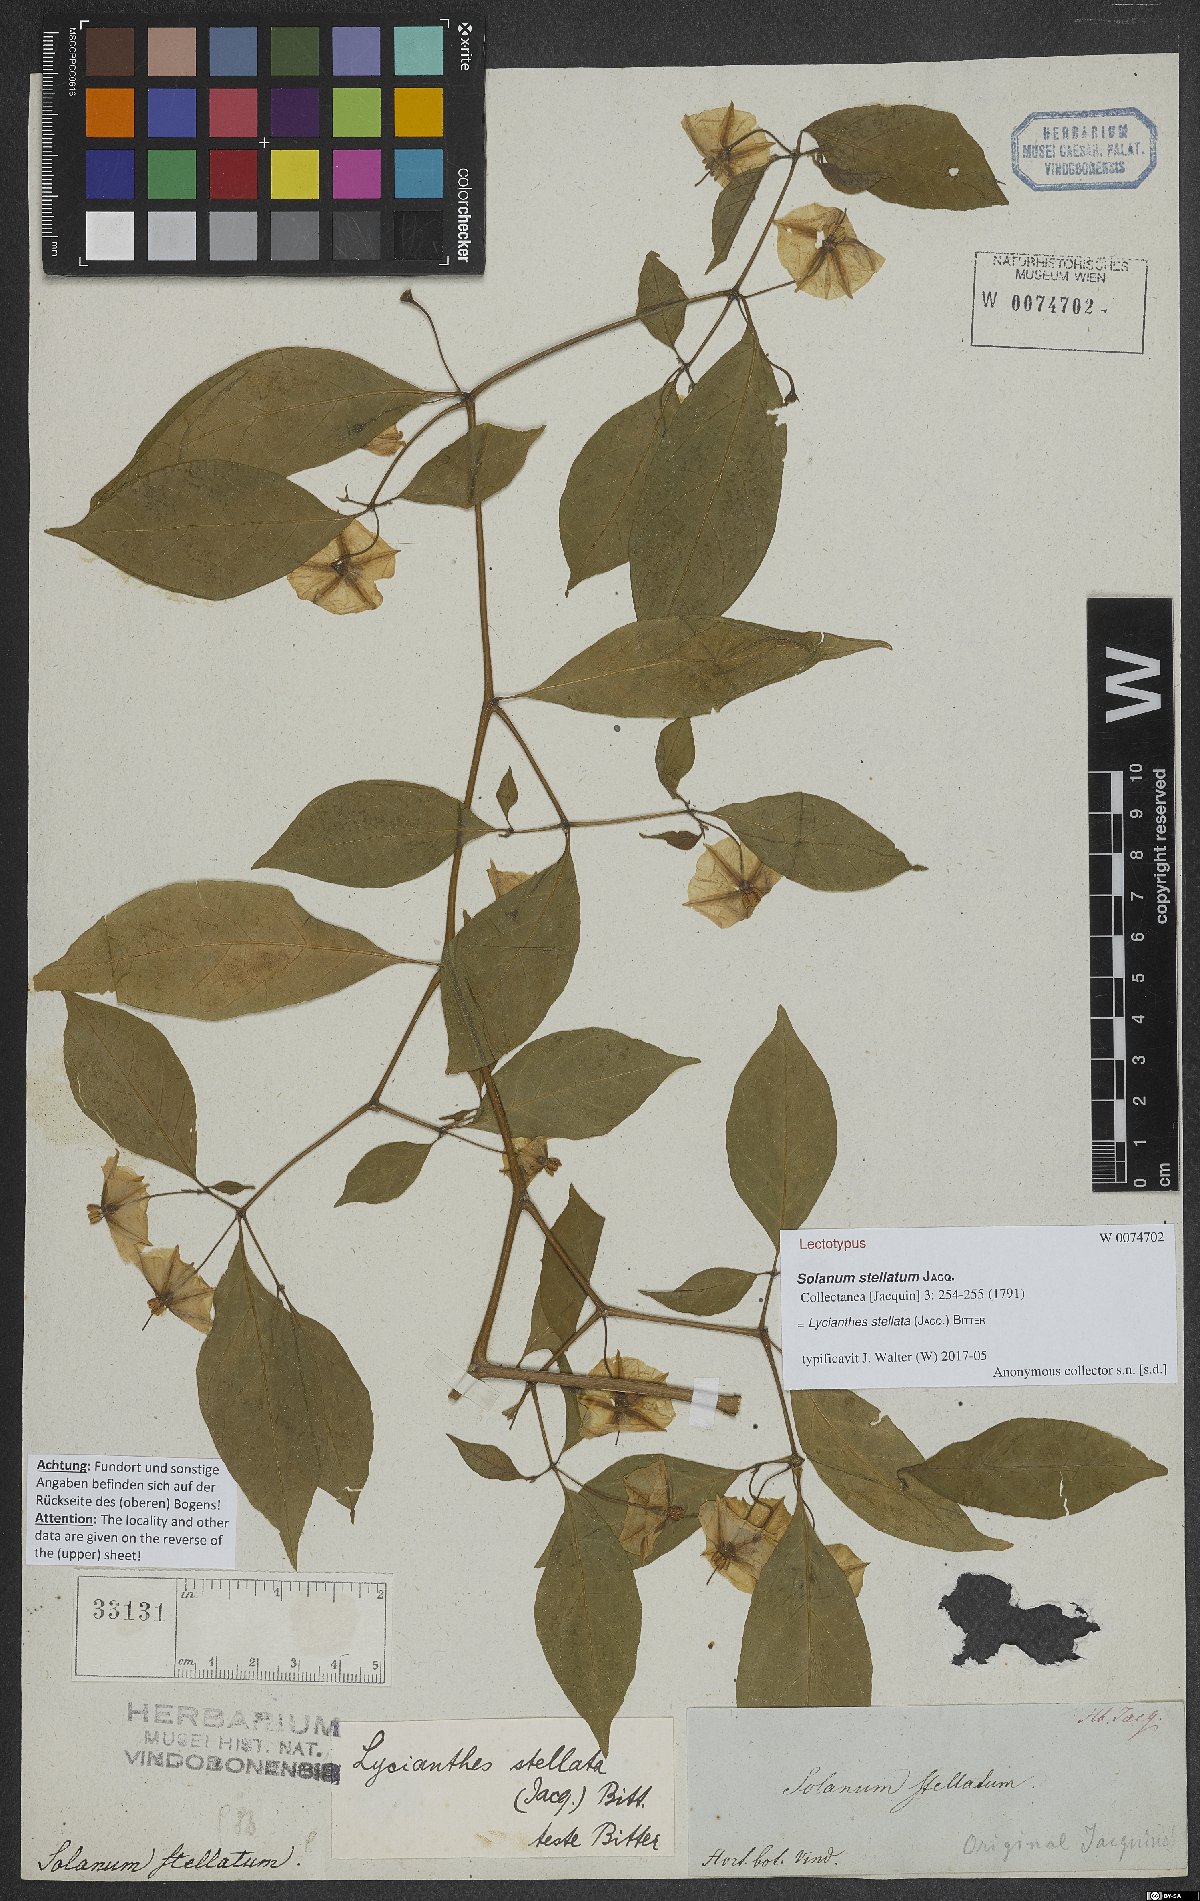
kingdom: Plantae
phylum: Tracheophyta
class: Magnoliopsida
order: Solanales
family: Solanaceae
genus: Lycianthes
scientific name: Lycianthes stellata
